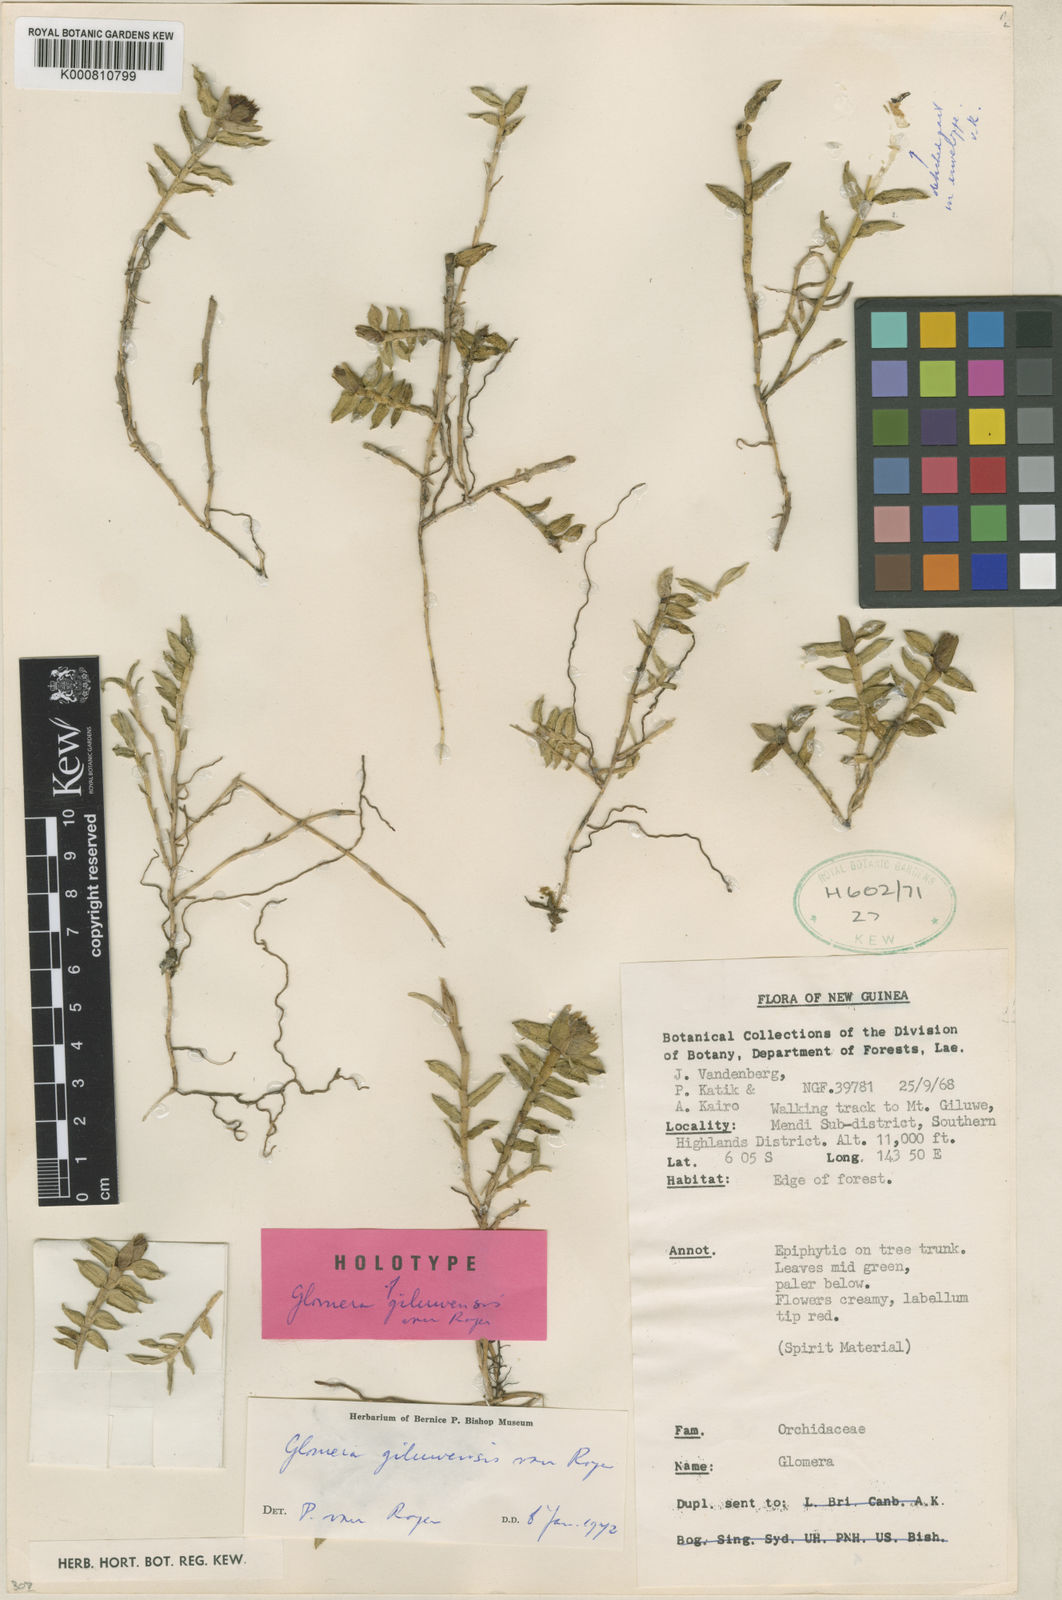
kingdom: Plantae
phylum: Tracheophyta
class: Liliopsida
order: Asparagales
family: Orchidaceae
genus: Glomera
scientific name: Glomera kanke
